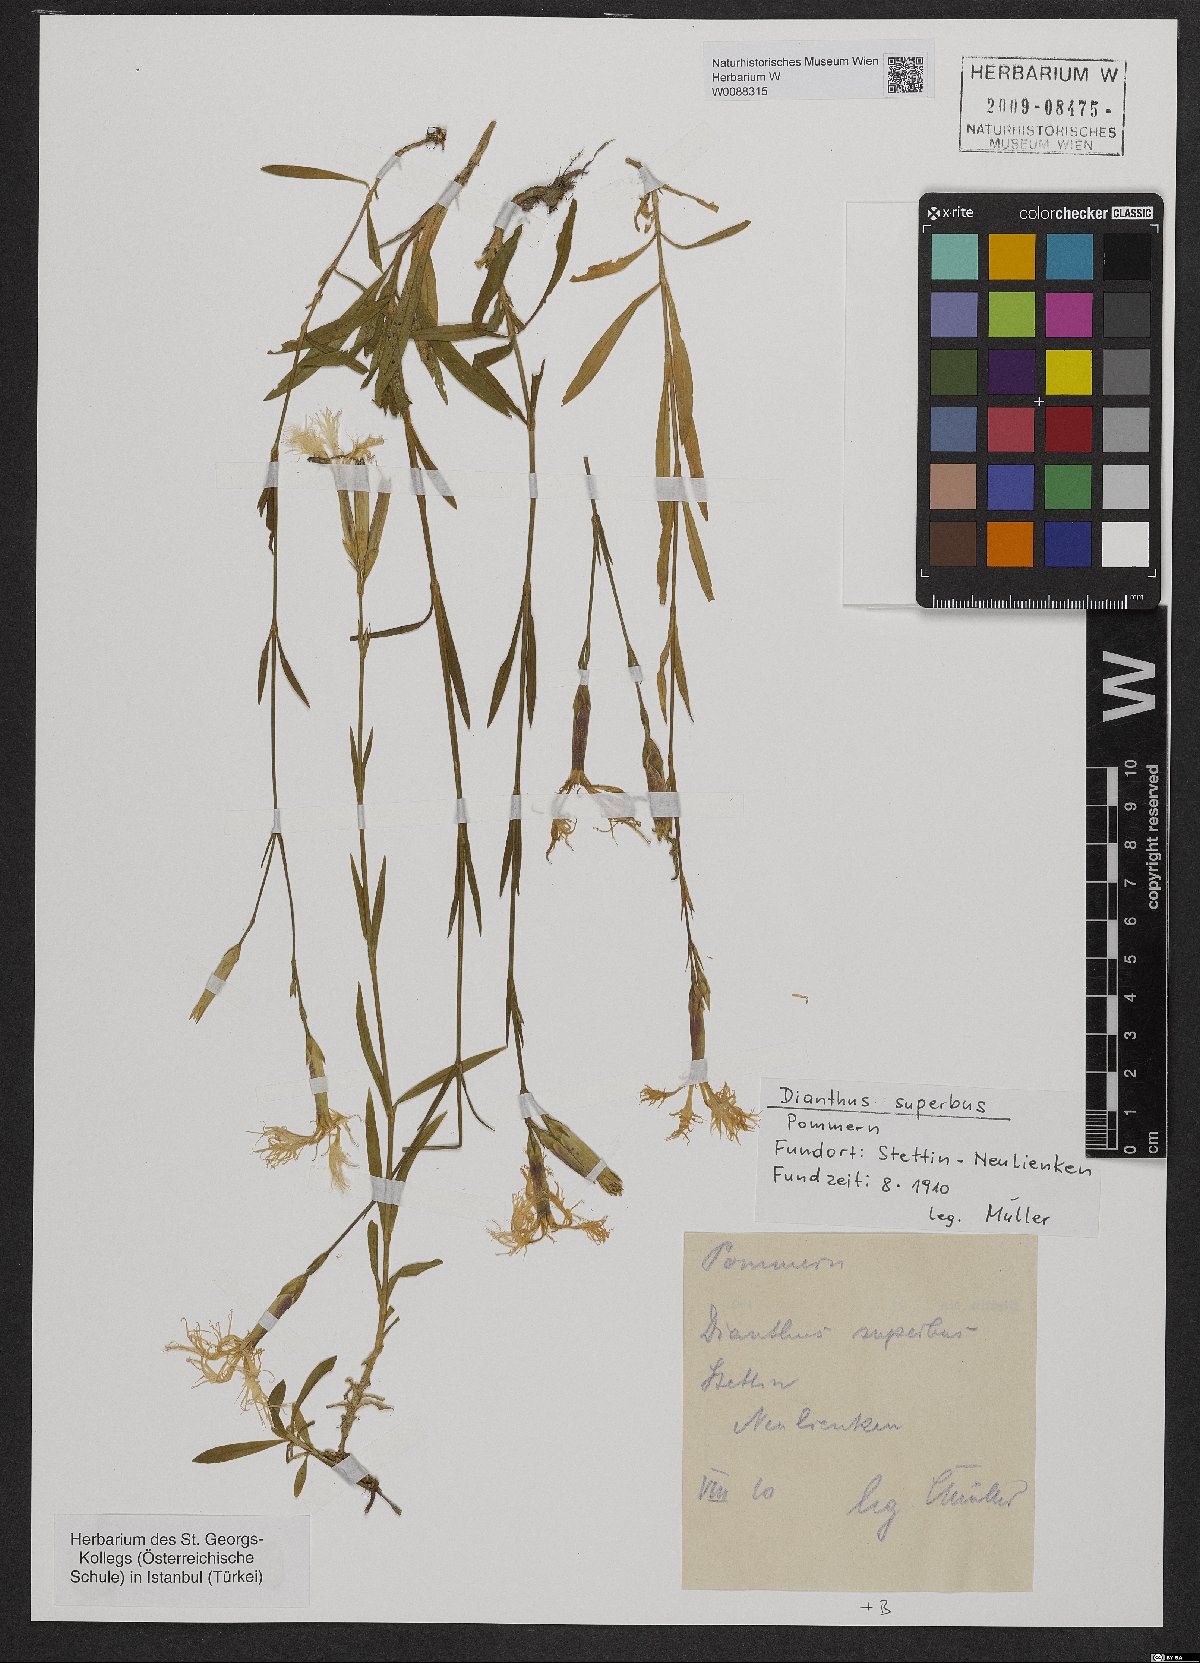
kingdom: Plantae
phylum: Tracheophyta
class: Magnoliopsida
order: Caryophyllales
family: Caryophyllaceae
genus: Dianthus
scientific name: Dianthus superbus
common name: Fringed pink
